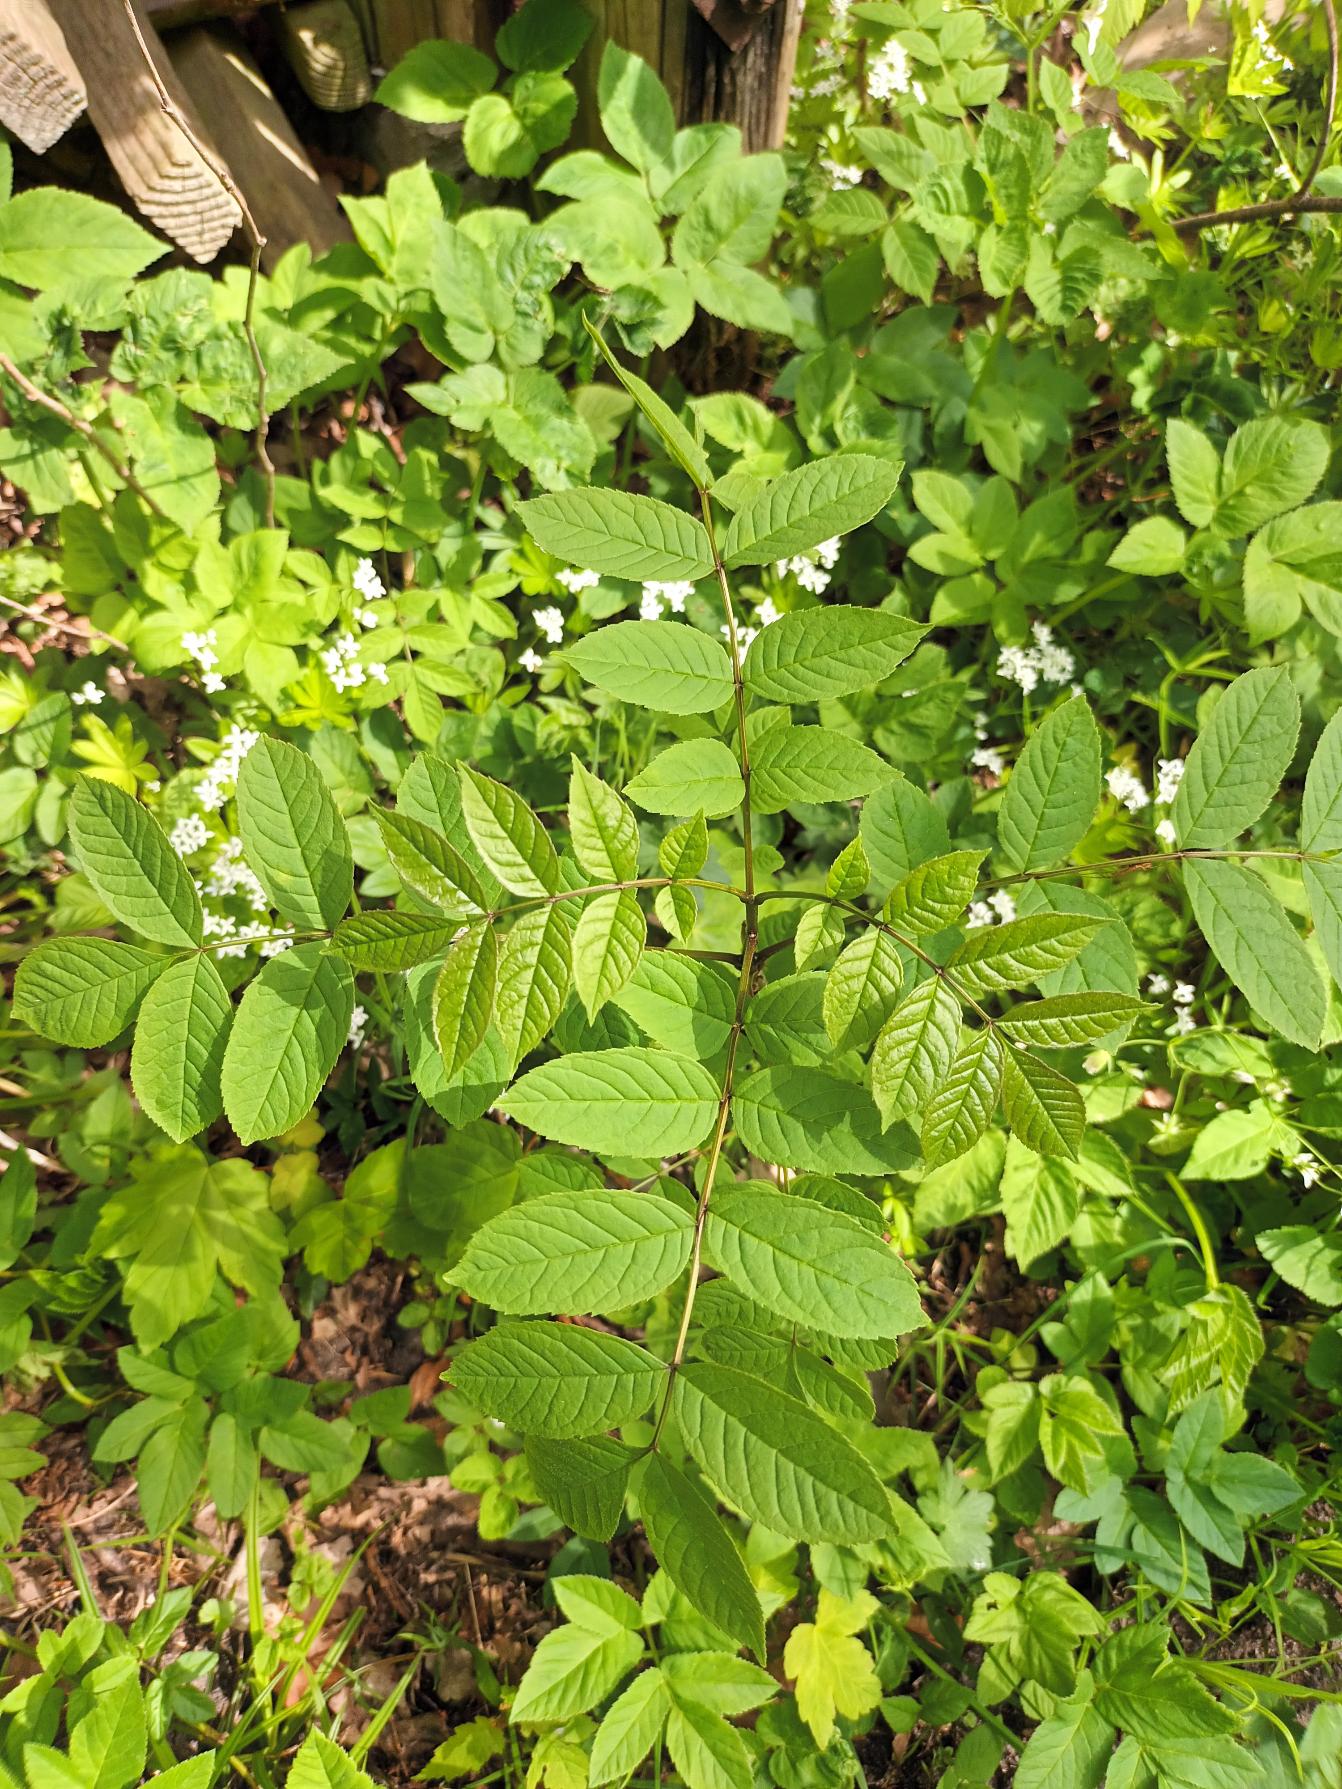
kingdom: Plantae
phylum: Tracheophyta
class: Magnoliopsida
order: Lamiales
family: Oleaceae
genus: Fraxinus
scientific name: Fraxinus excelsior
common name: Ask
